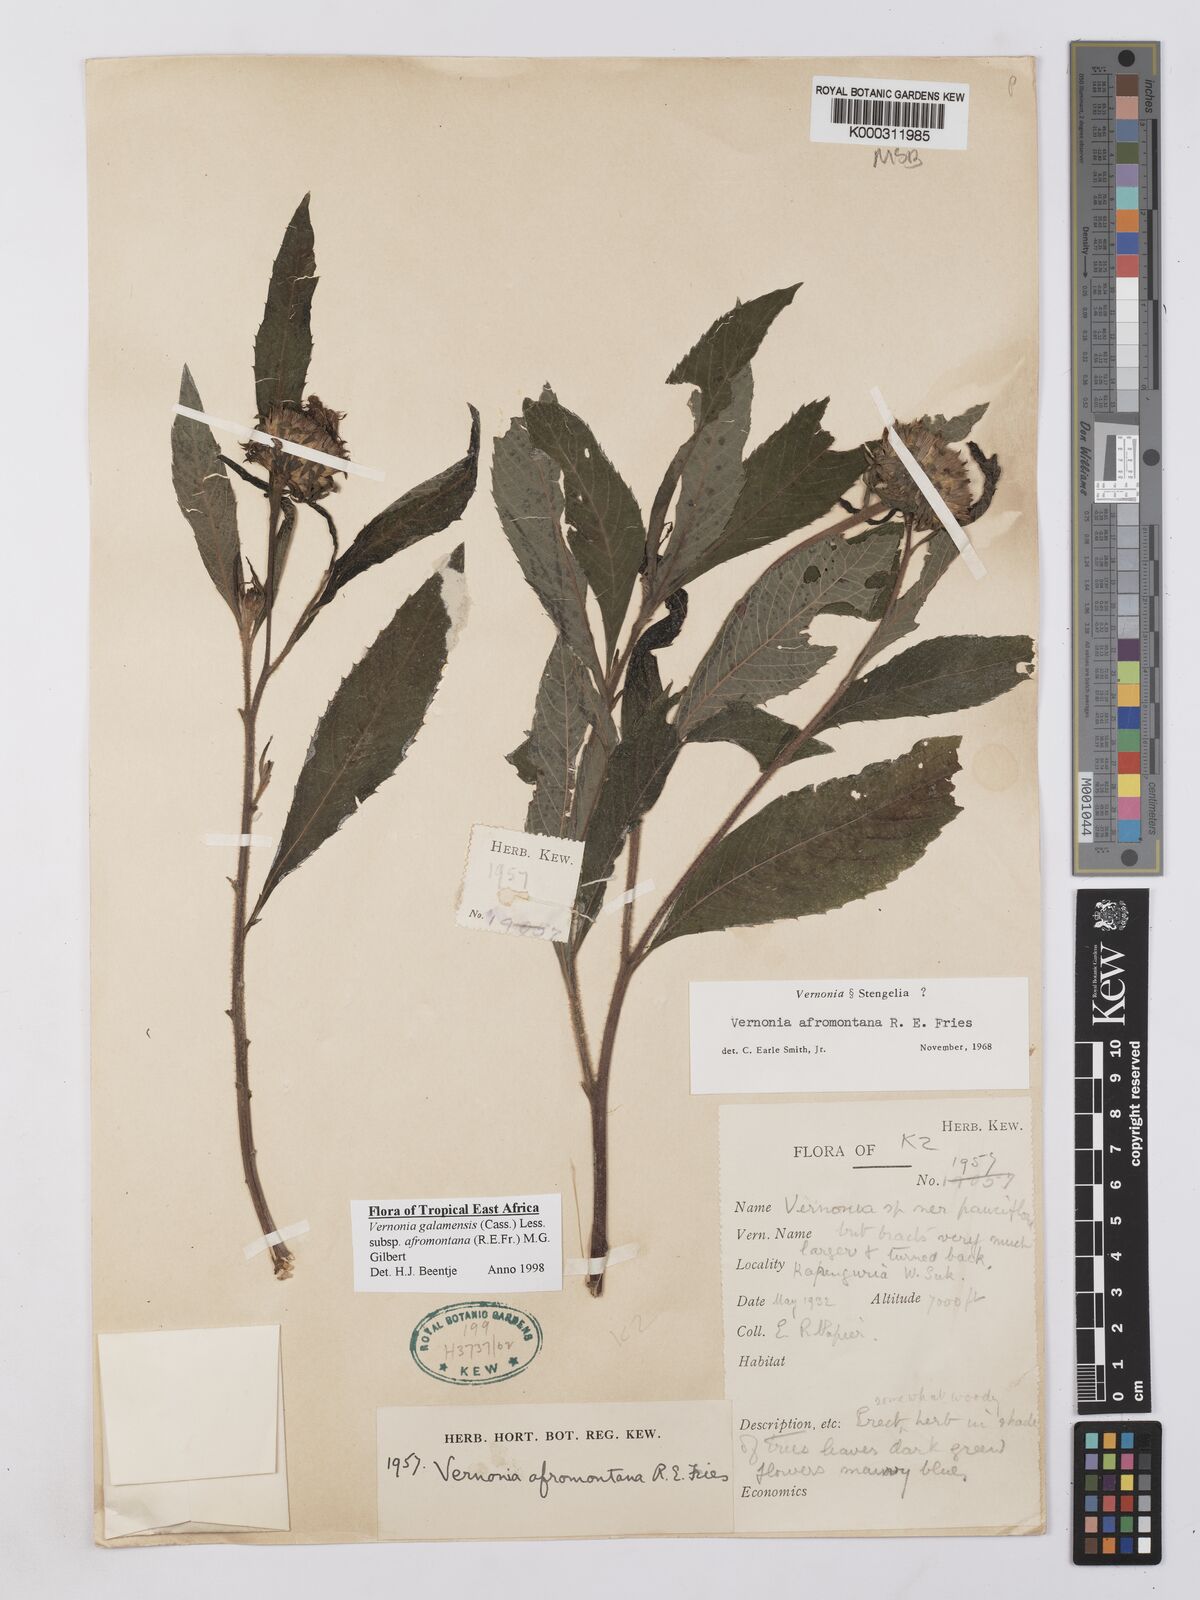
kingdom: Plantae
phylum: Tracheophyta
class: Magnoliopsida
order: Asterales
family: Asteraceae
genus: Vernonia
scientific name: Vernonia galamensis
